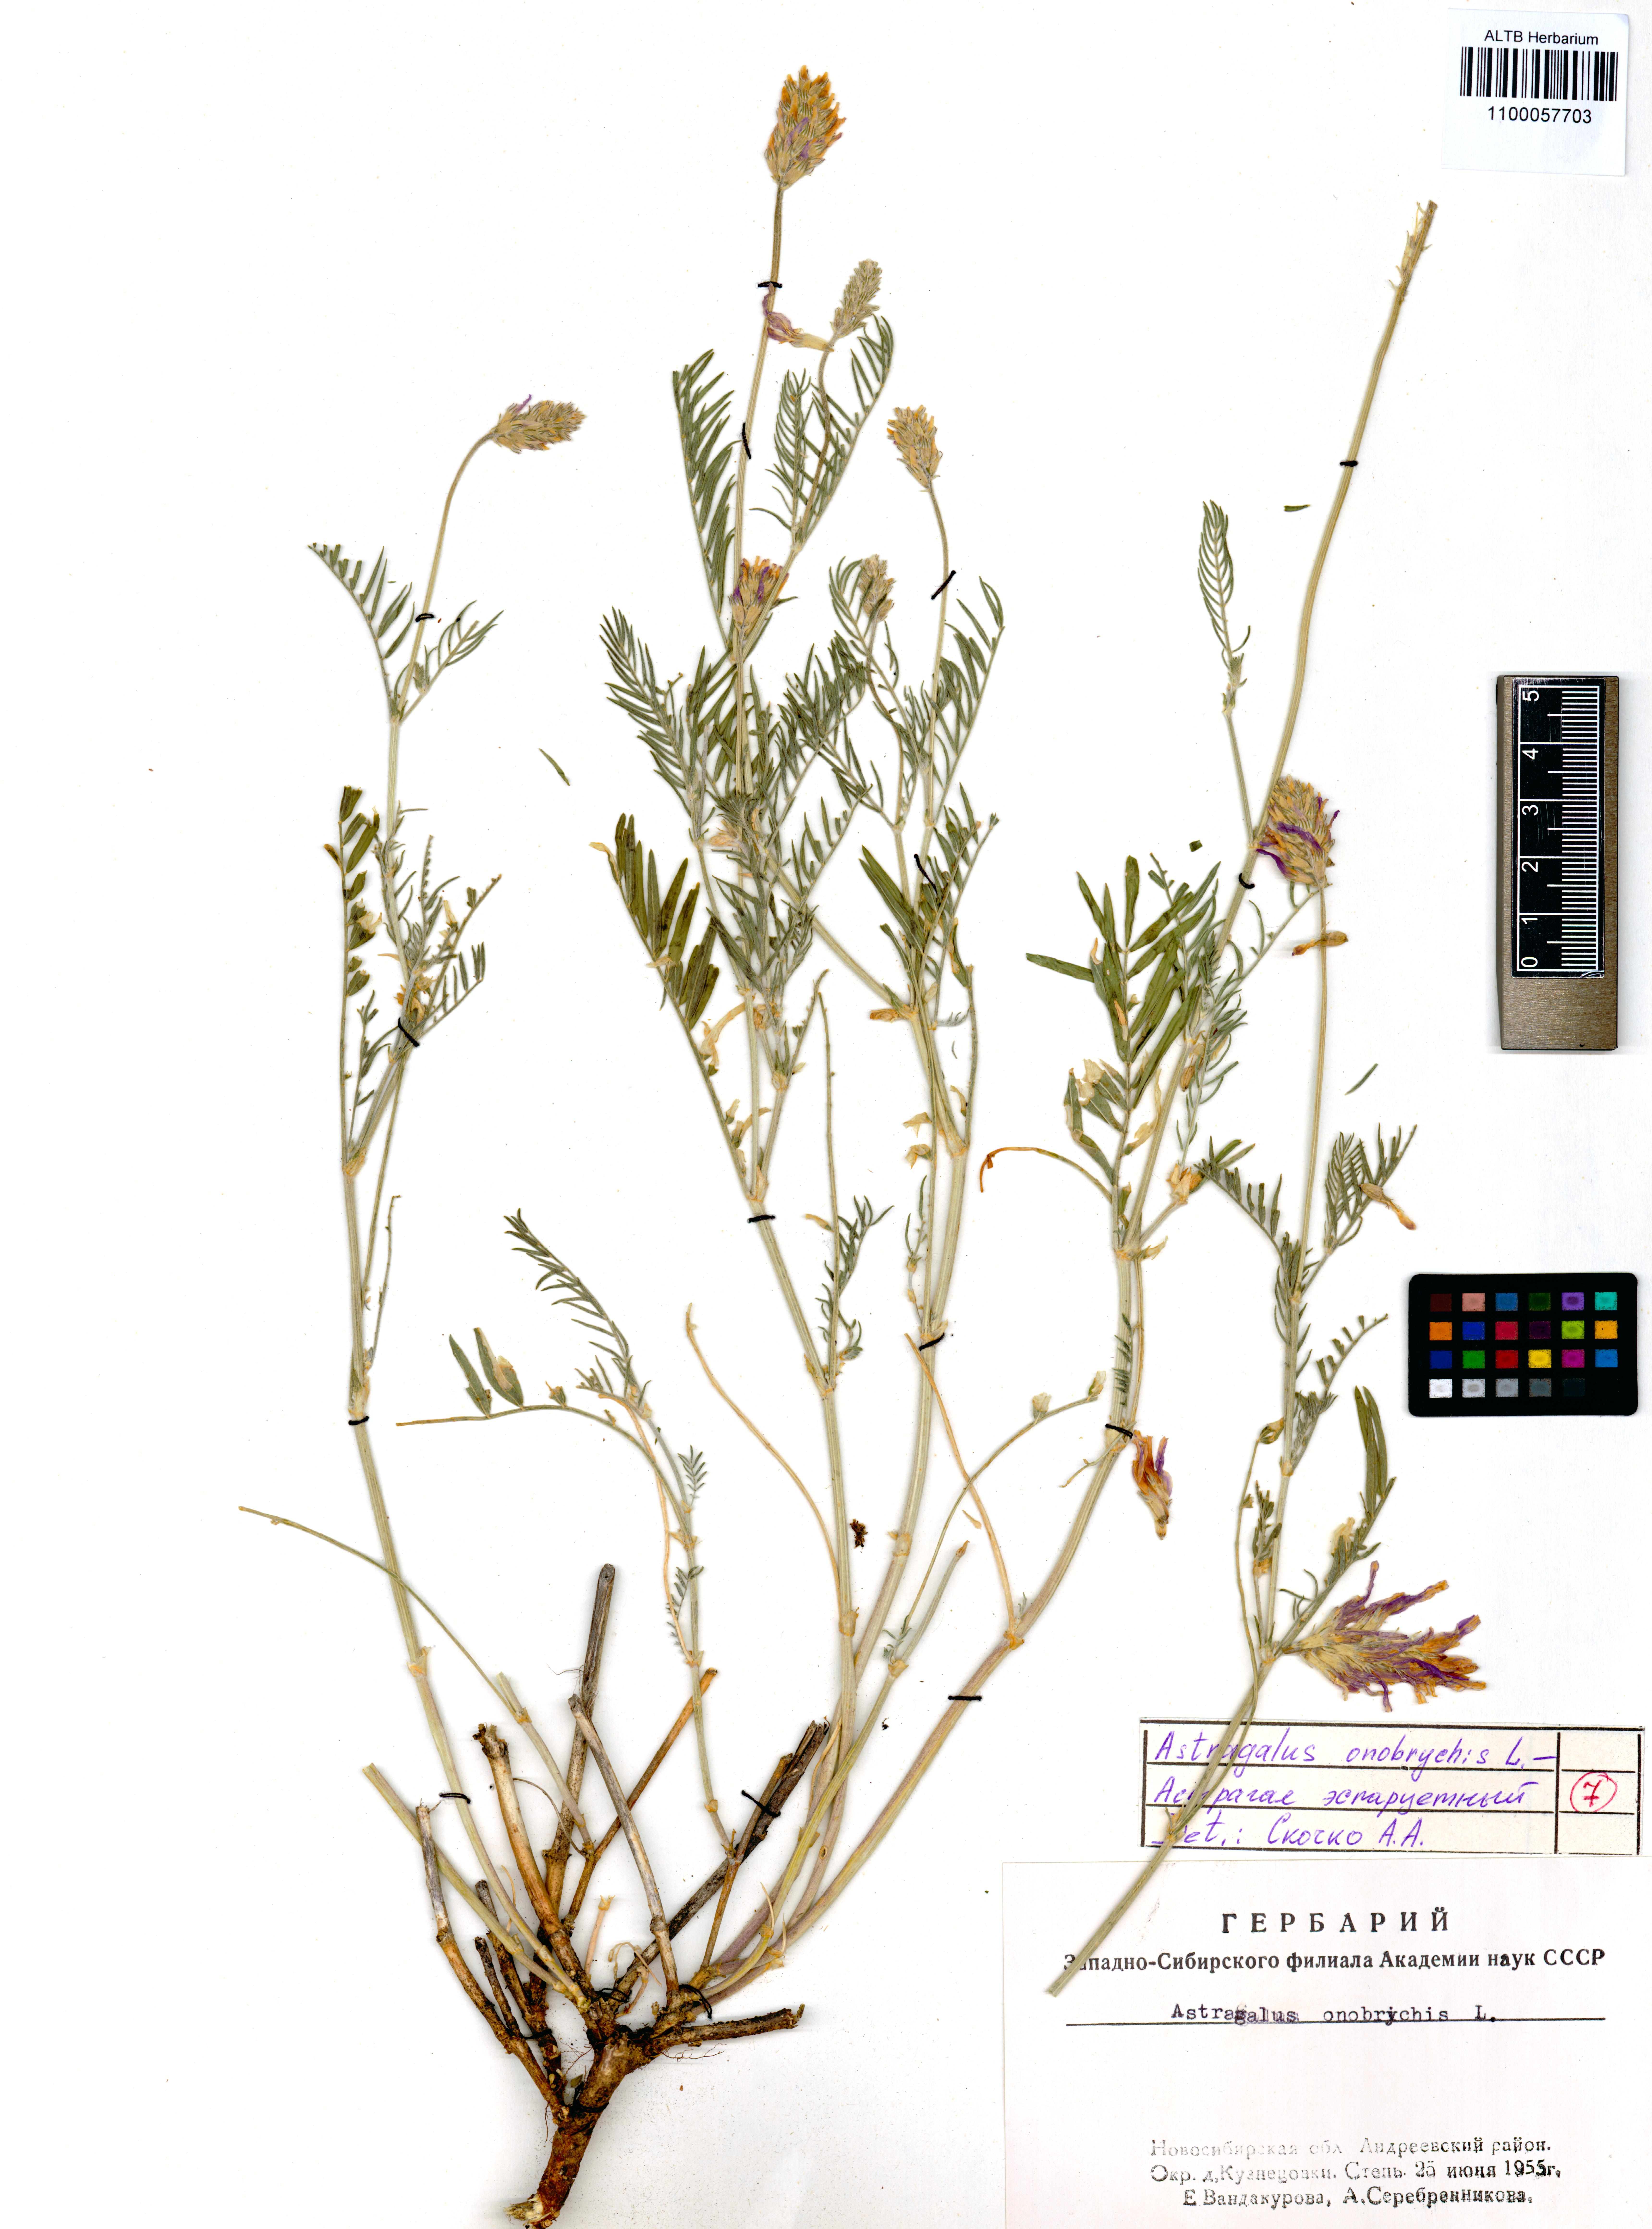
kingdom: Plantae
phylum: Tracheophyta
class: Magnoliopsida
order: Fabales
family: Fabaceae
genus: Astragalus
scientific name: Astragalus onobrychis
